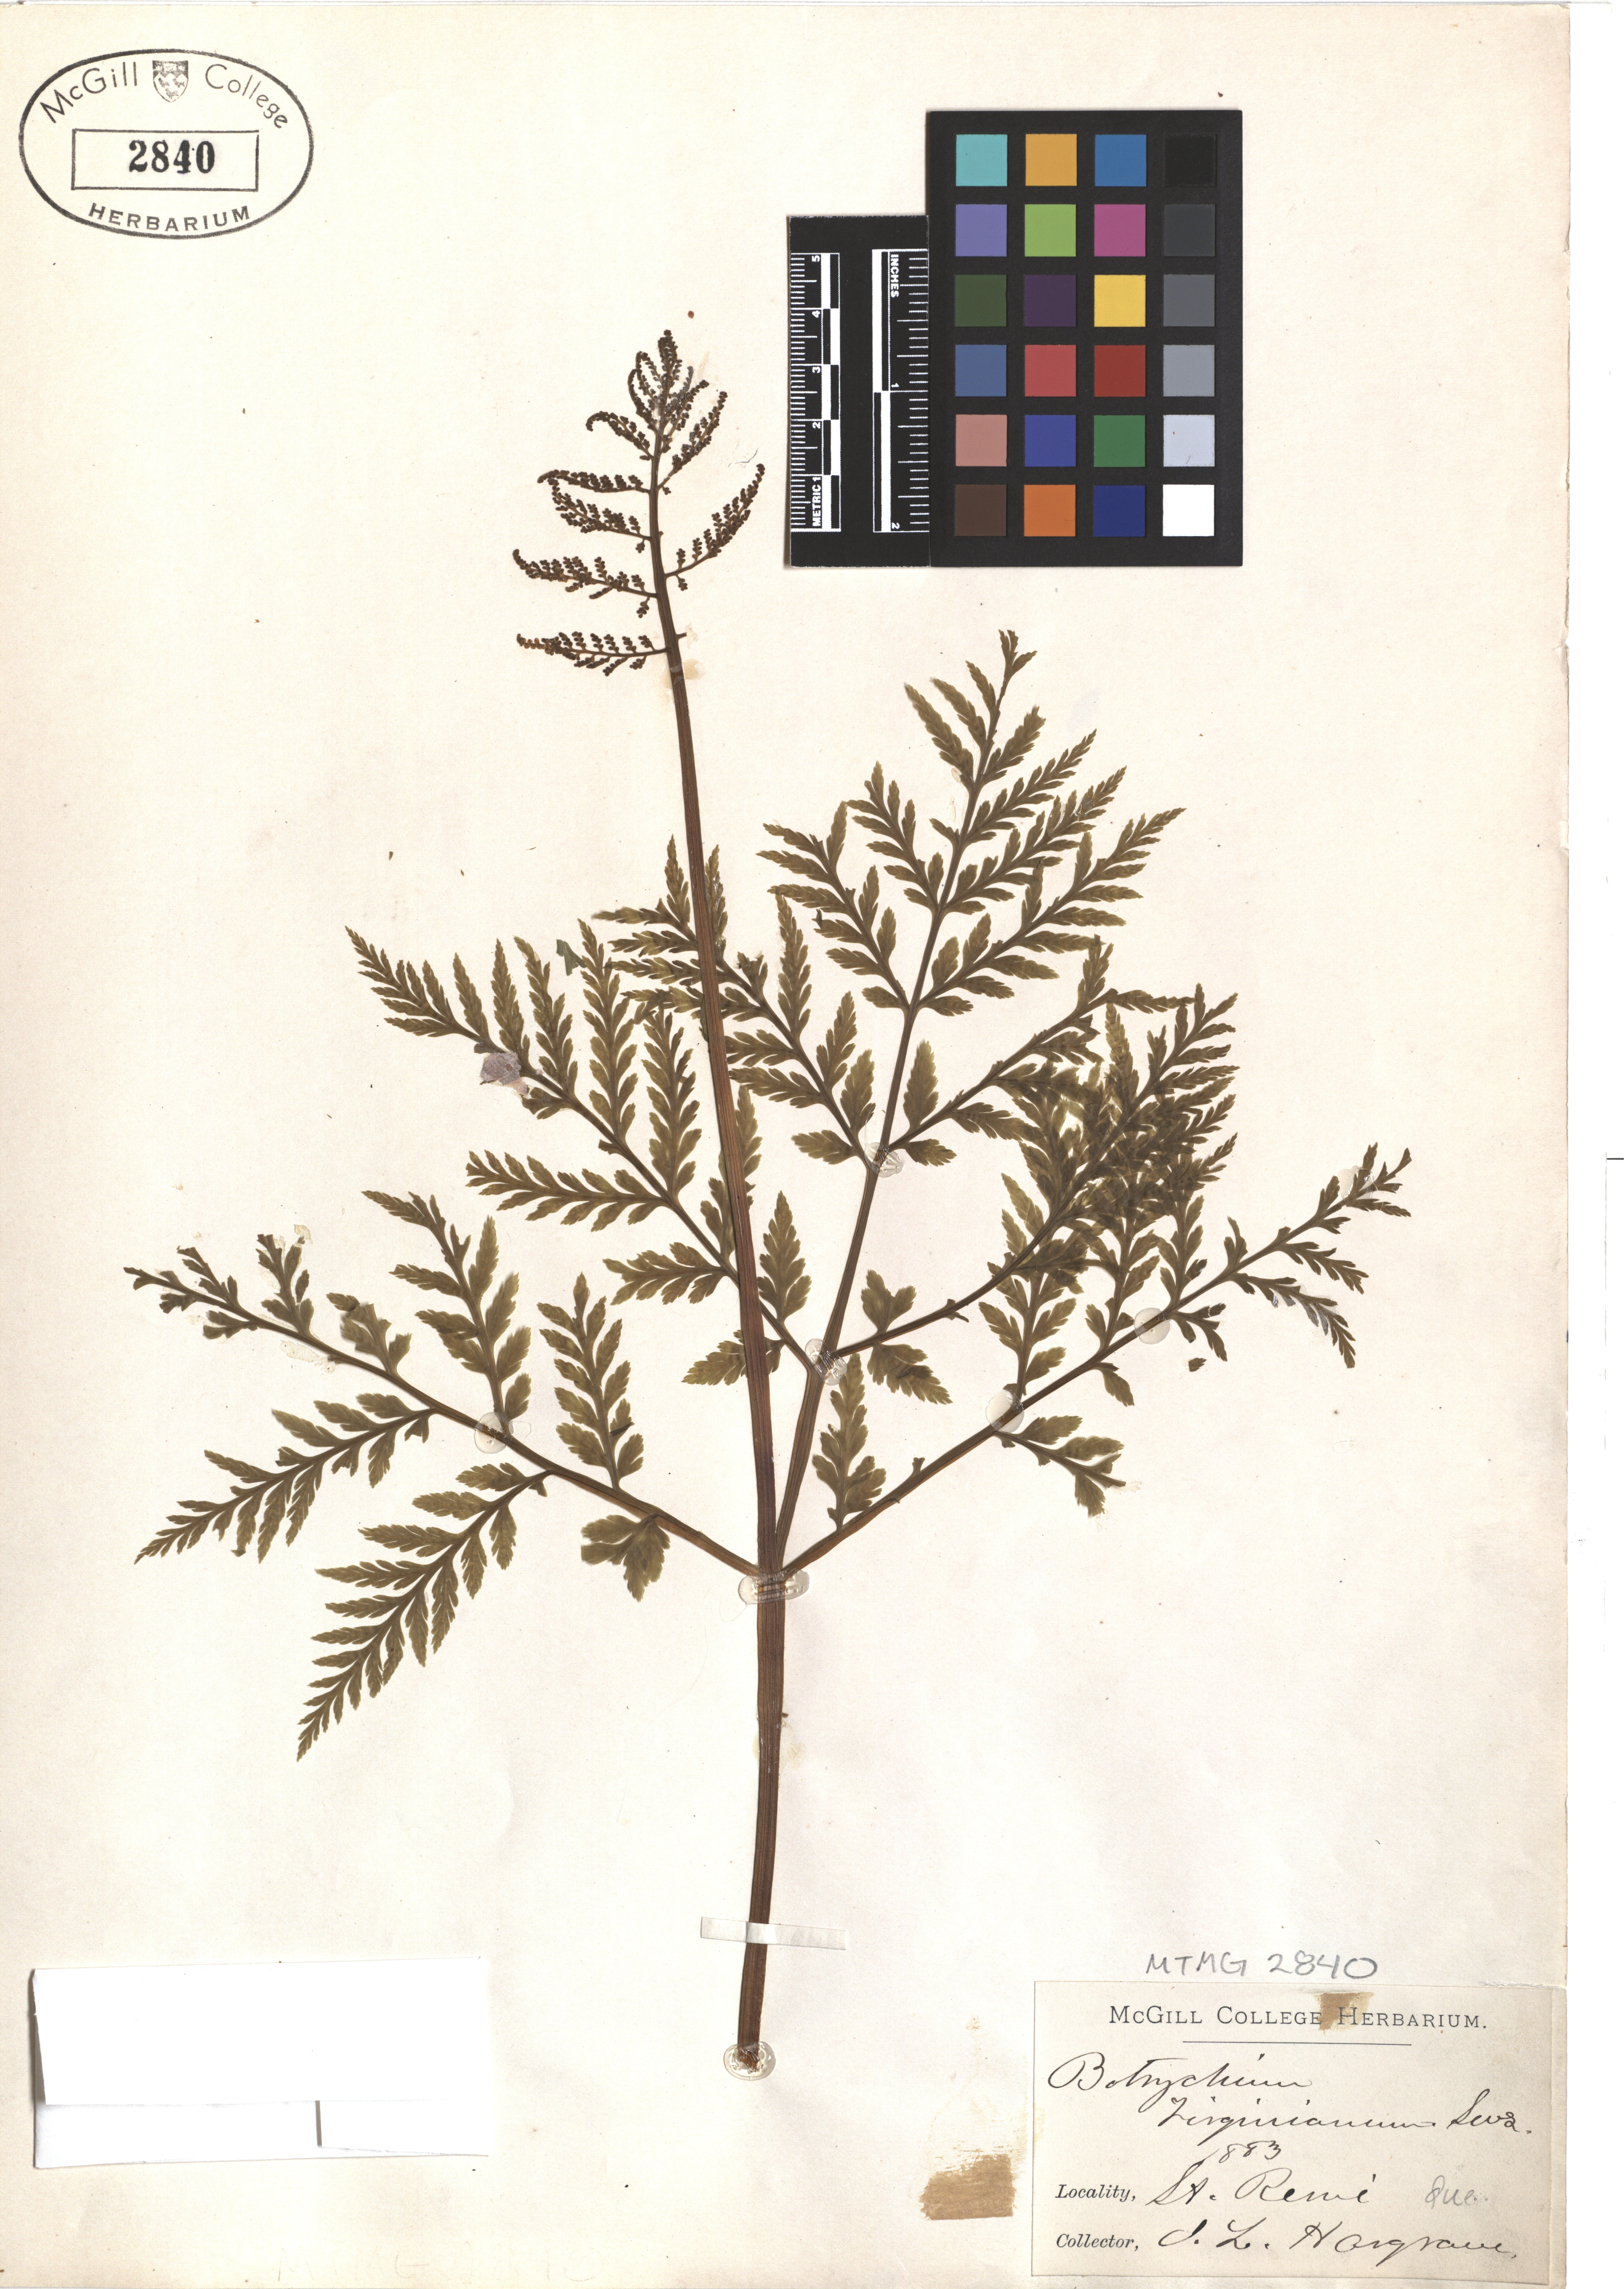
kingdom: Plantae
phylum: Tracheophyta
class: Polypodiopsida
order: Ophioglossales
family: Ophioglossaceae
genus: Botrypus
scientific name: Botrypus virginianus
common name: Common grapefern
